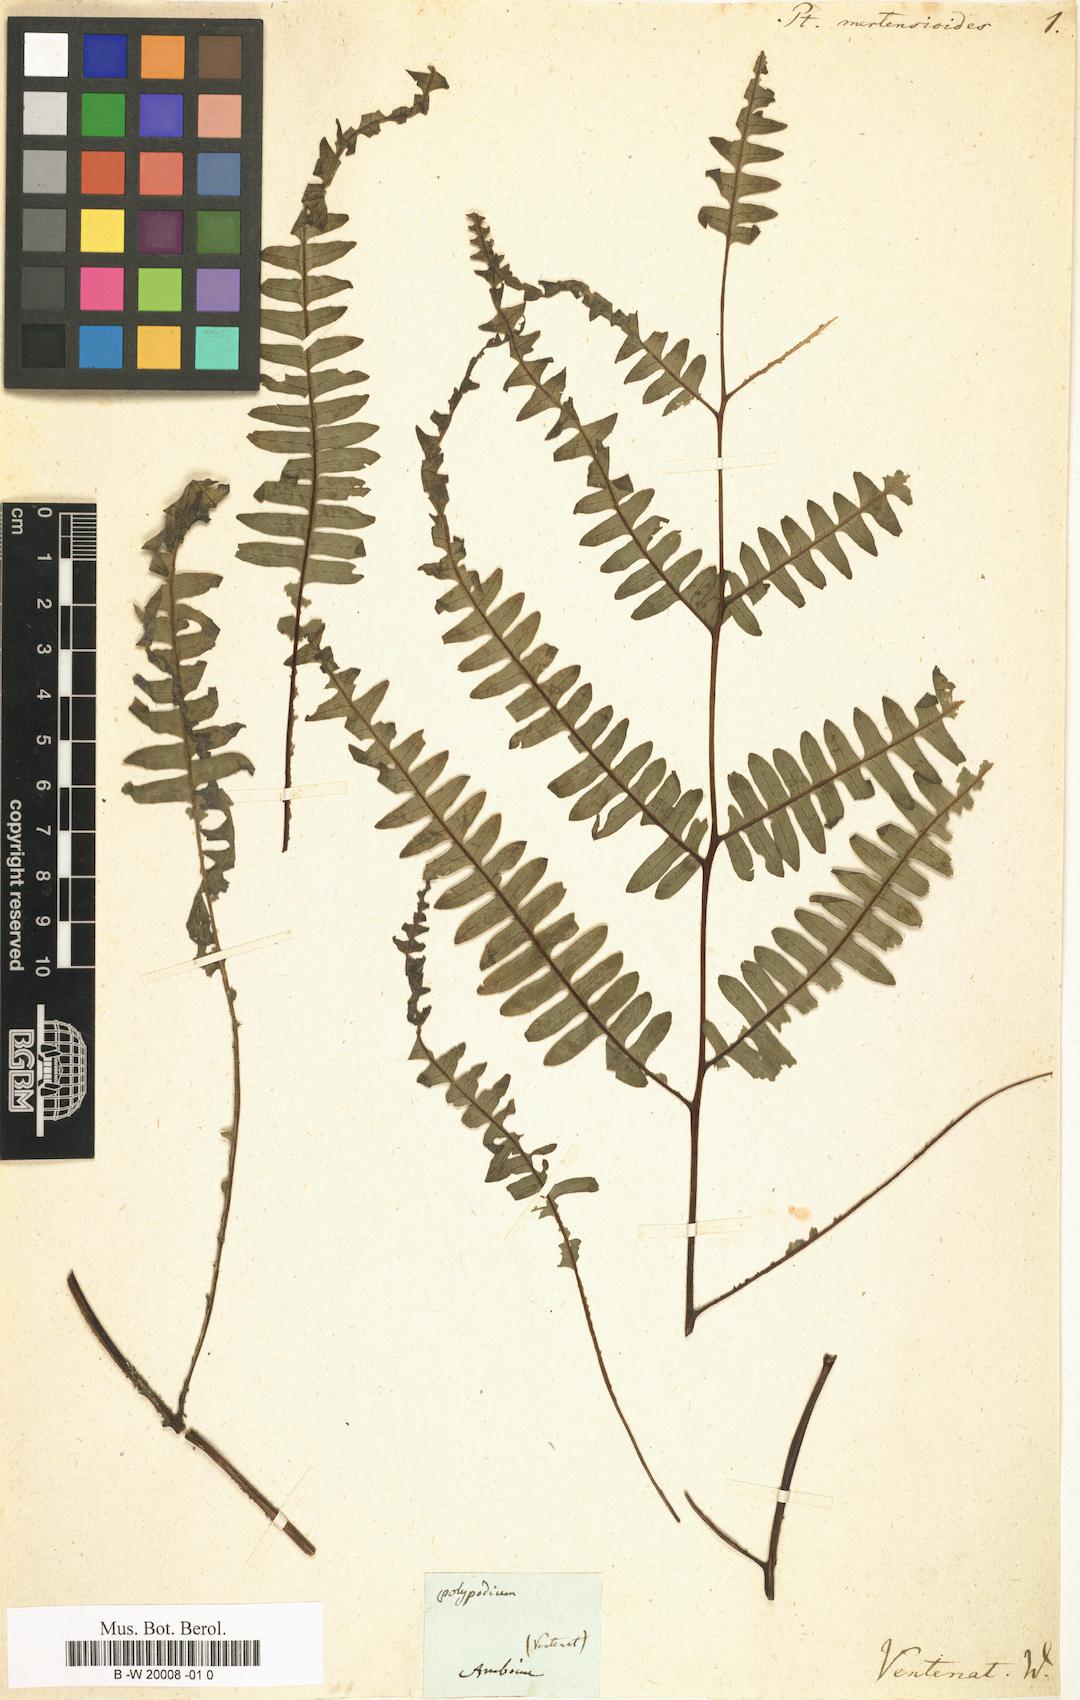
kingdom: Plantae
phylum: Tracheophyta
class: Polypodiopsida
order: Polypodiales
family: Pteridaceae
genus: Pteris
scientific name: Pteris mertensioides
